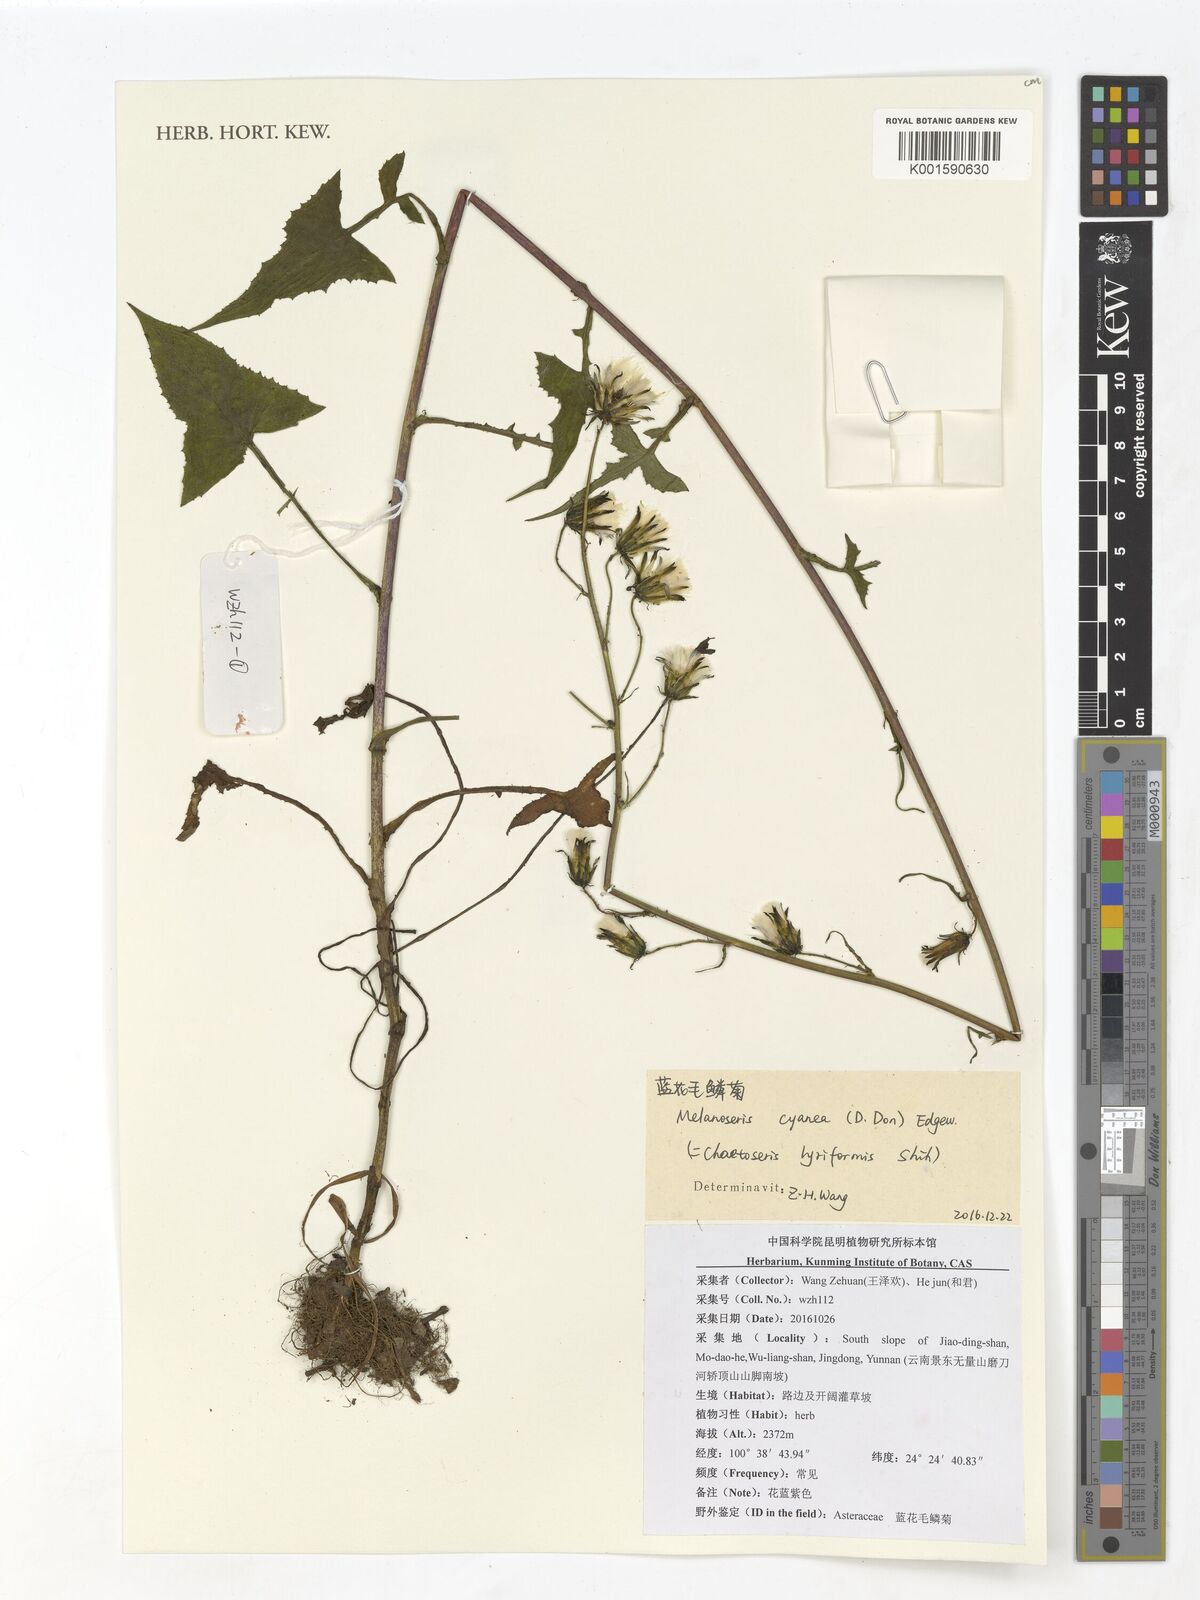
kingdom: Plantae
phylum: Tracheophyta
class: Magnoliopsida
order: Asterales
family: Asteraceae
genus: Melanoseris
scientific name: Melanoseris cyanea
